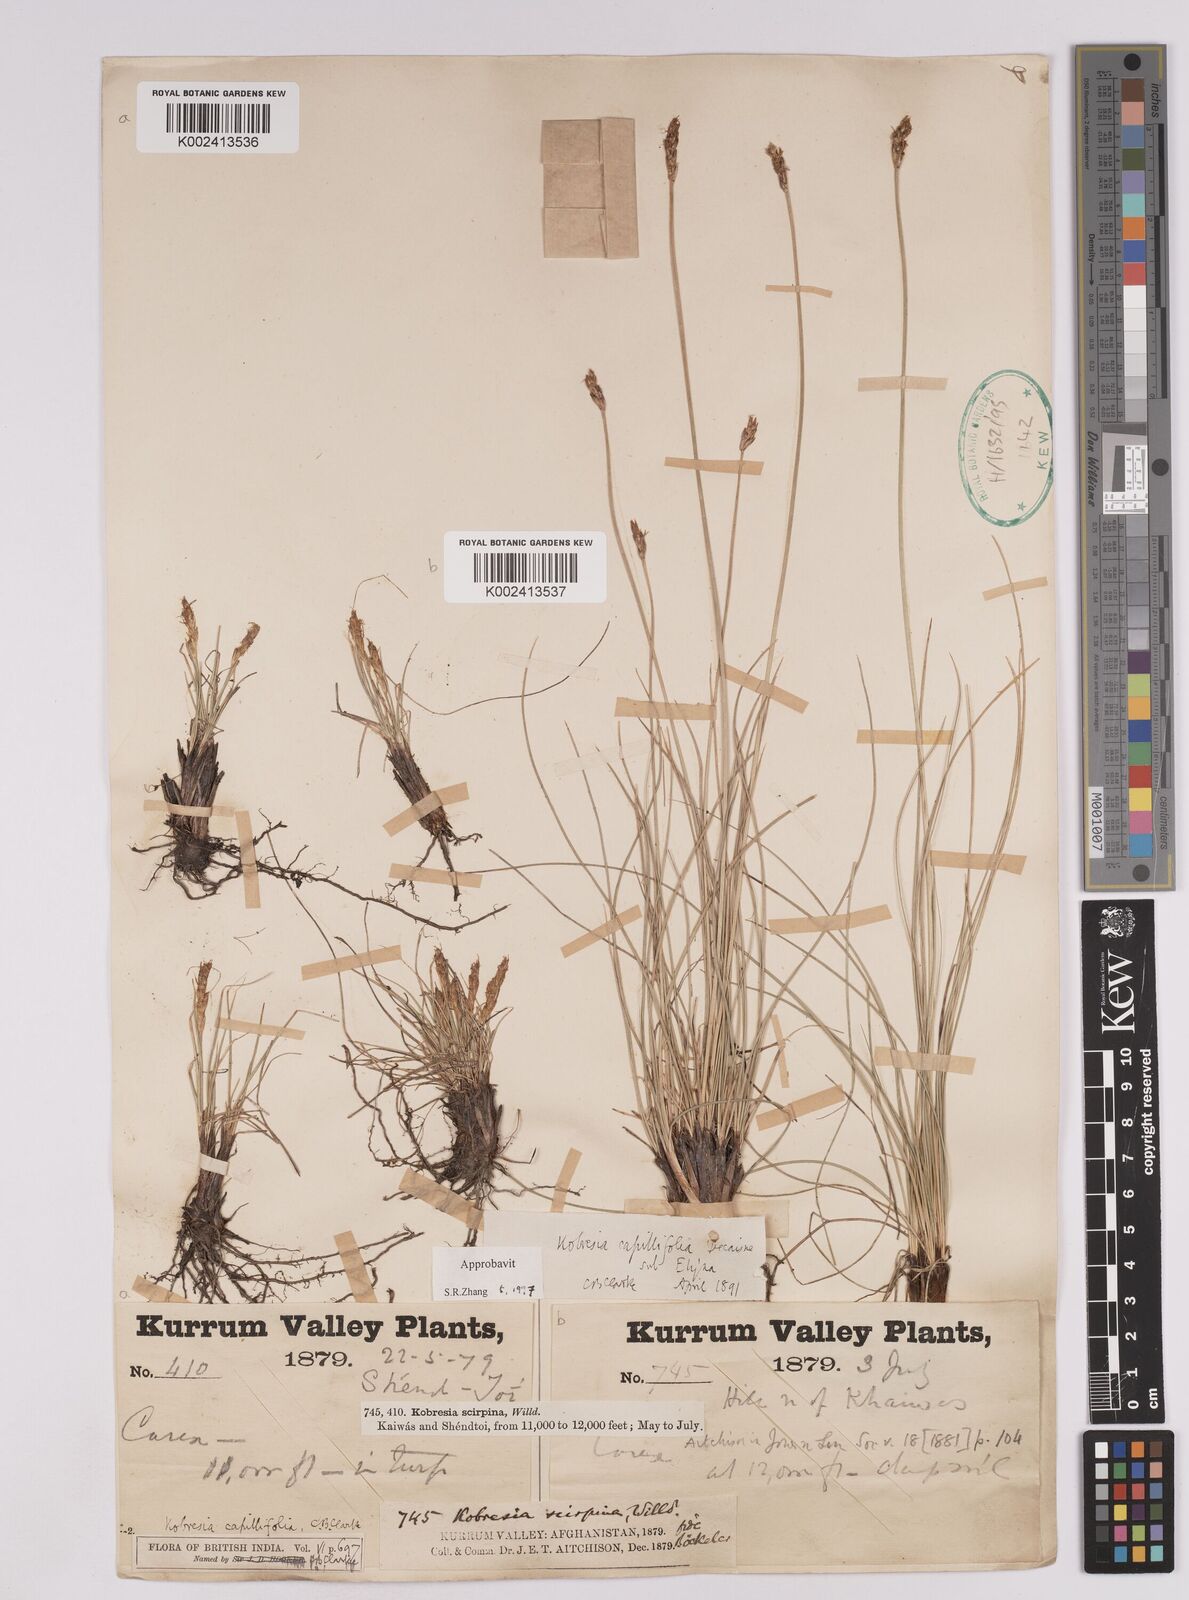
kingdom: Plantae
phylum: Tracheophyta
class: Liliopsida
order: Poales
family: Cyperaceae
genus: Carex
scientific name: Carex capillifolia
